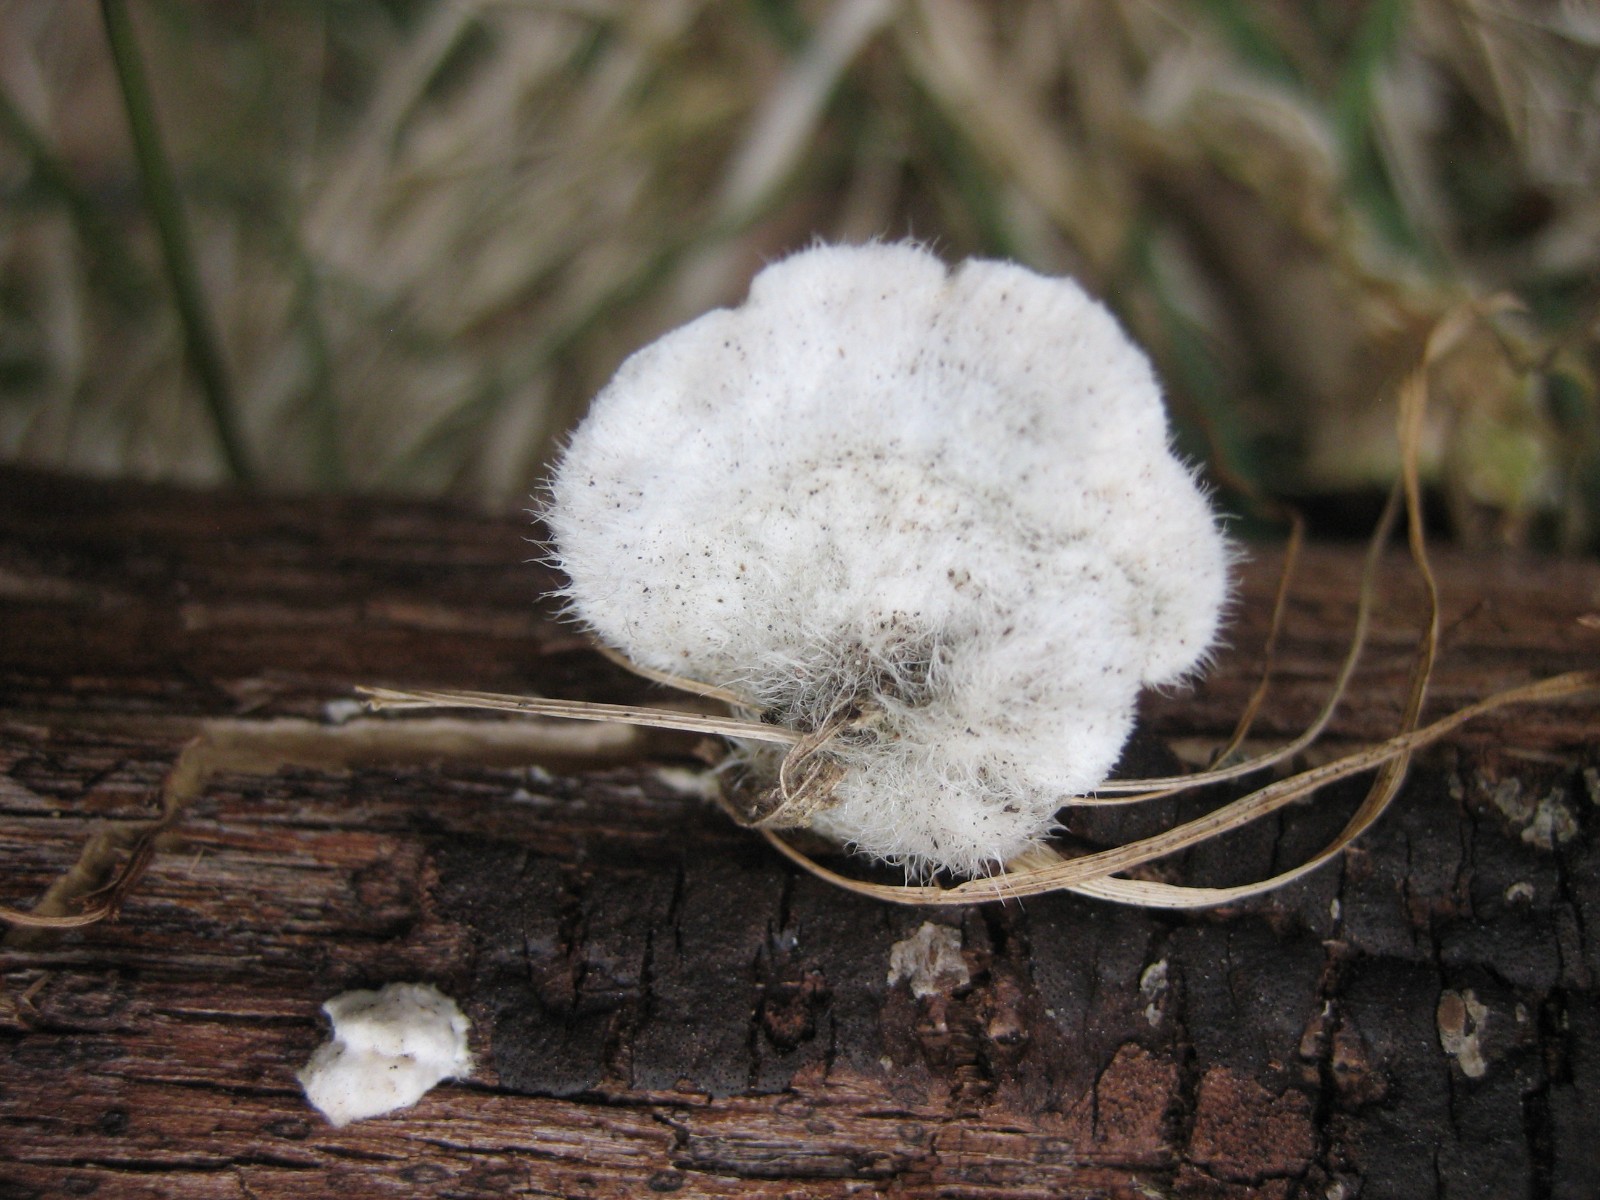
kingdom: Fungi
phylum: Basidiomycota
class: Agaricomycetes
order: Polyporales
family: Polyporaceae
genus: Trametes
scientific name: Trametes hirsuta
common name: håret læderporesvamp
